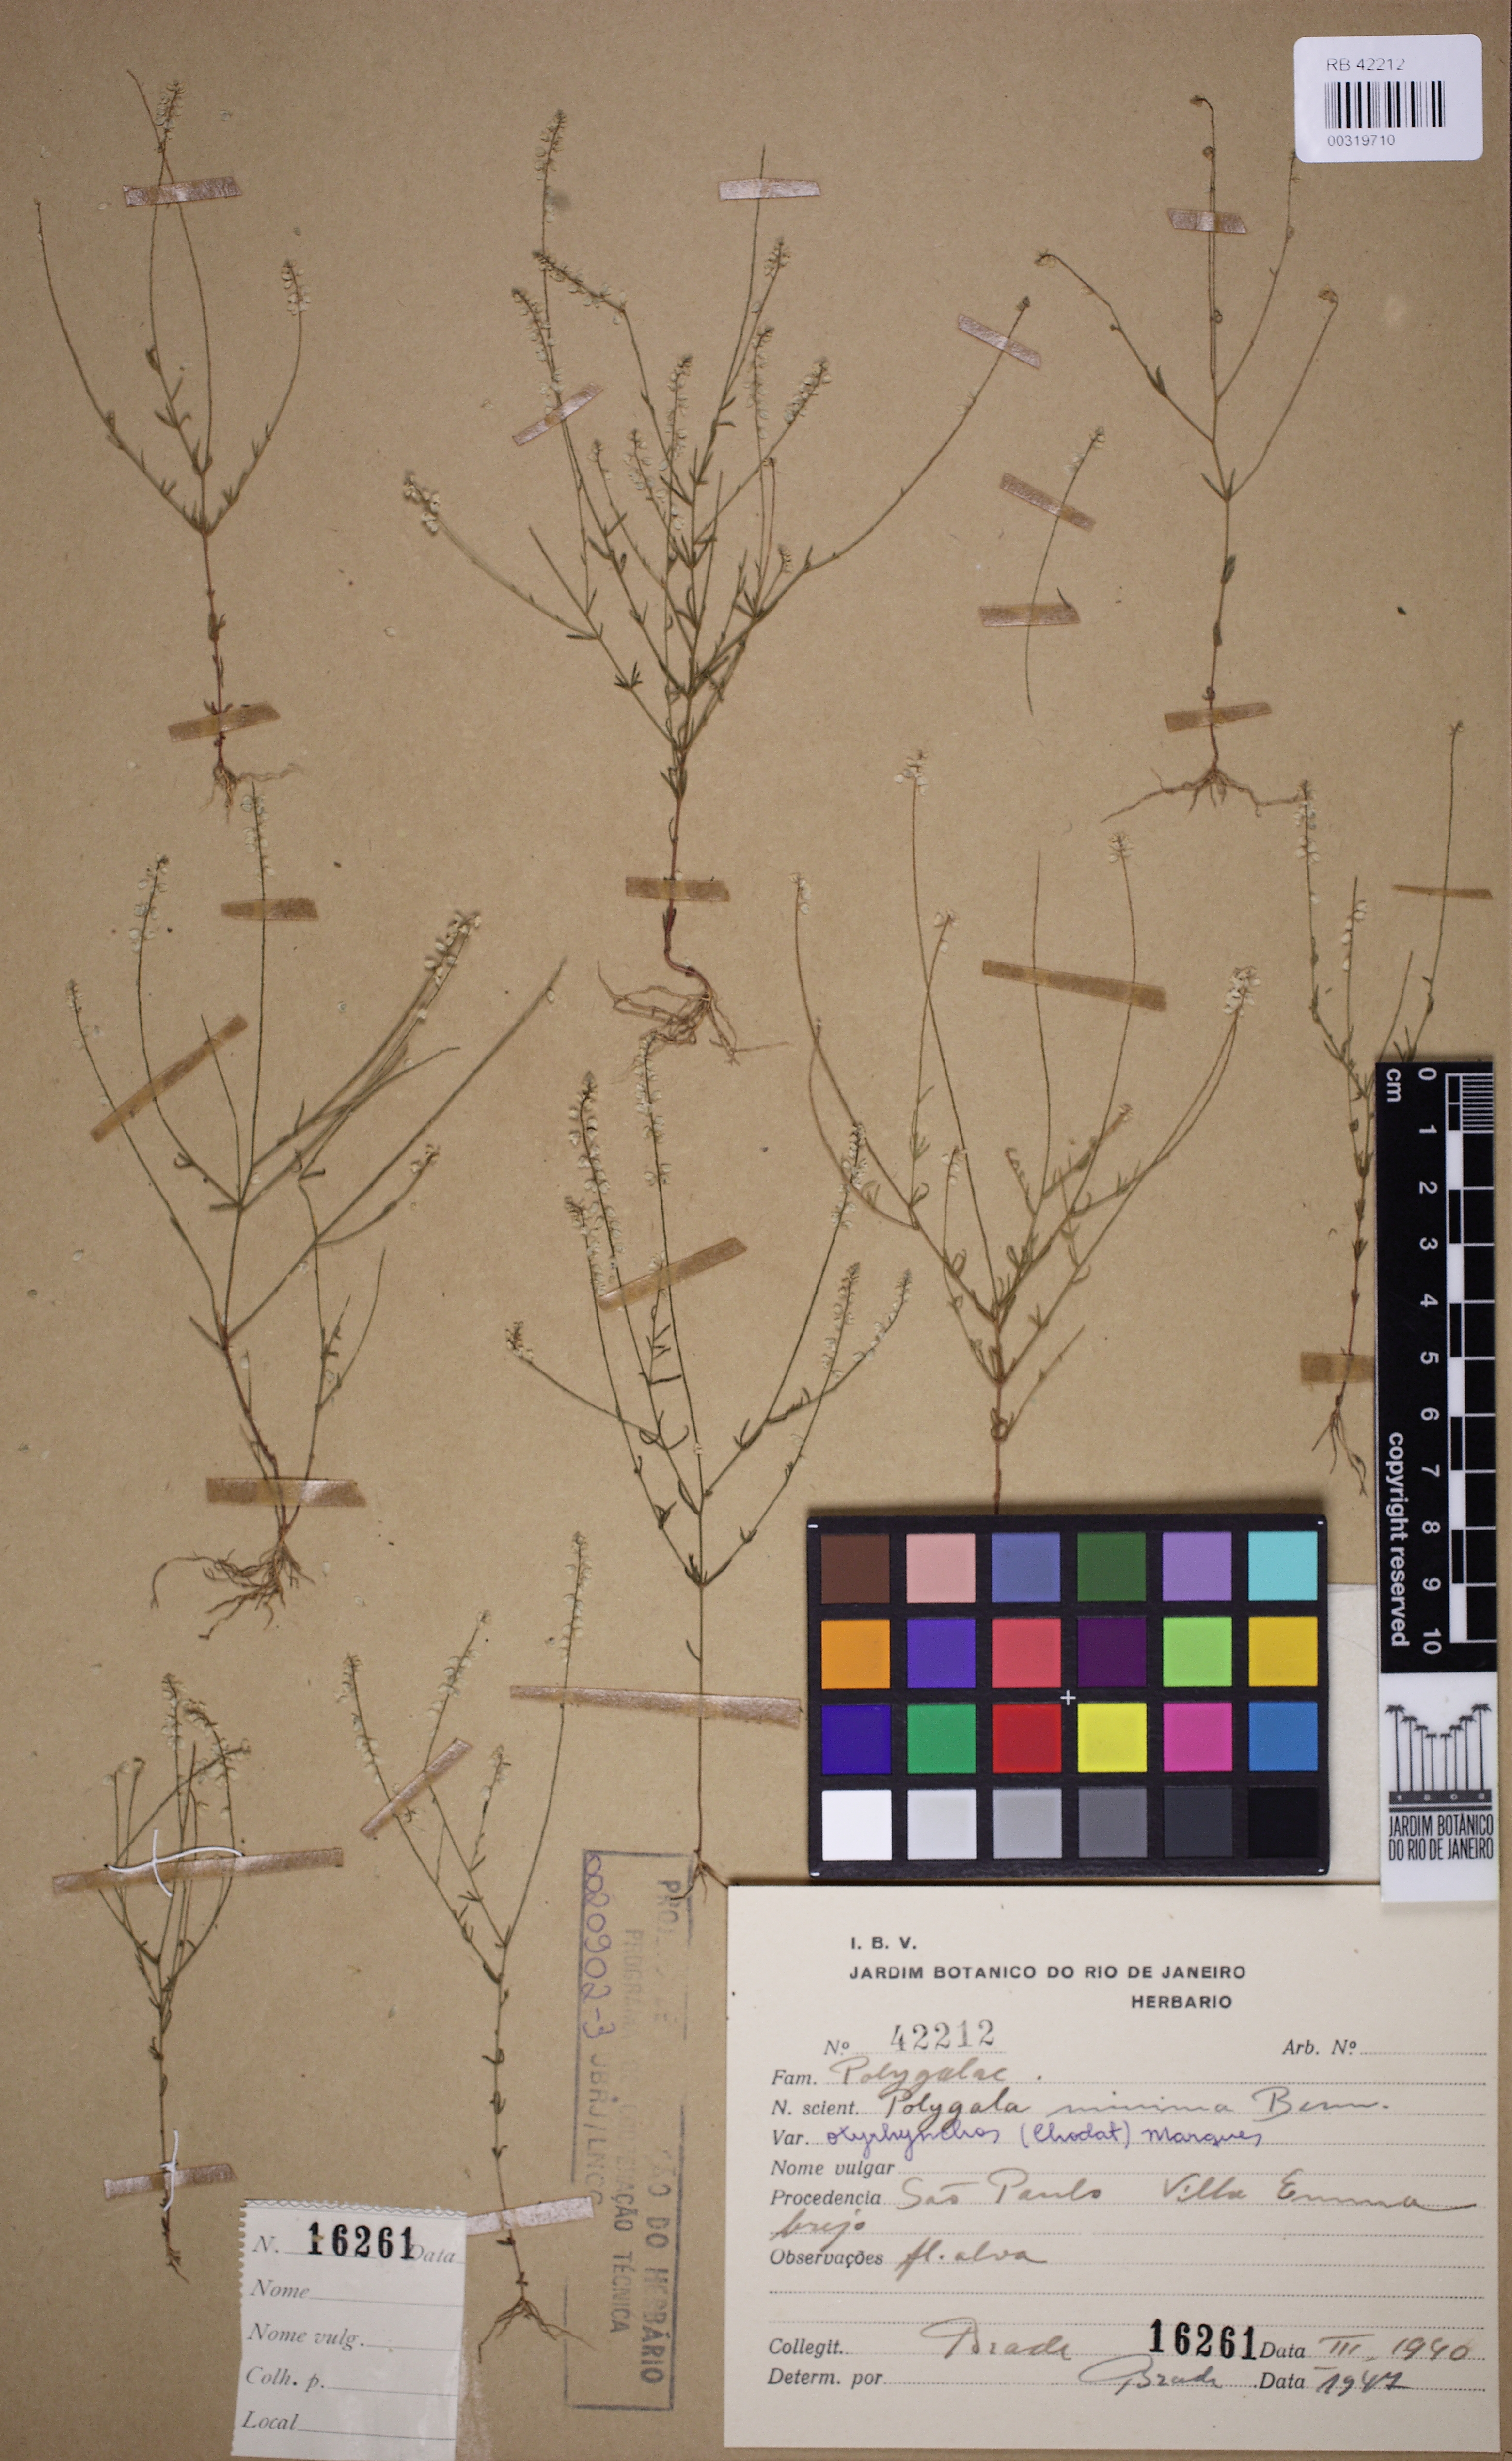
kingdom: Plantae
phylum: Tracheophyta
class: Magnoliopsida
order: Fabales
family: Polygalaceae
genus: Polygala
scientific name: Polygala glochidiata
